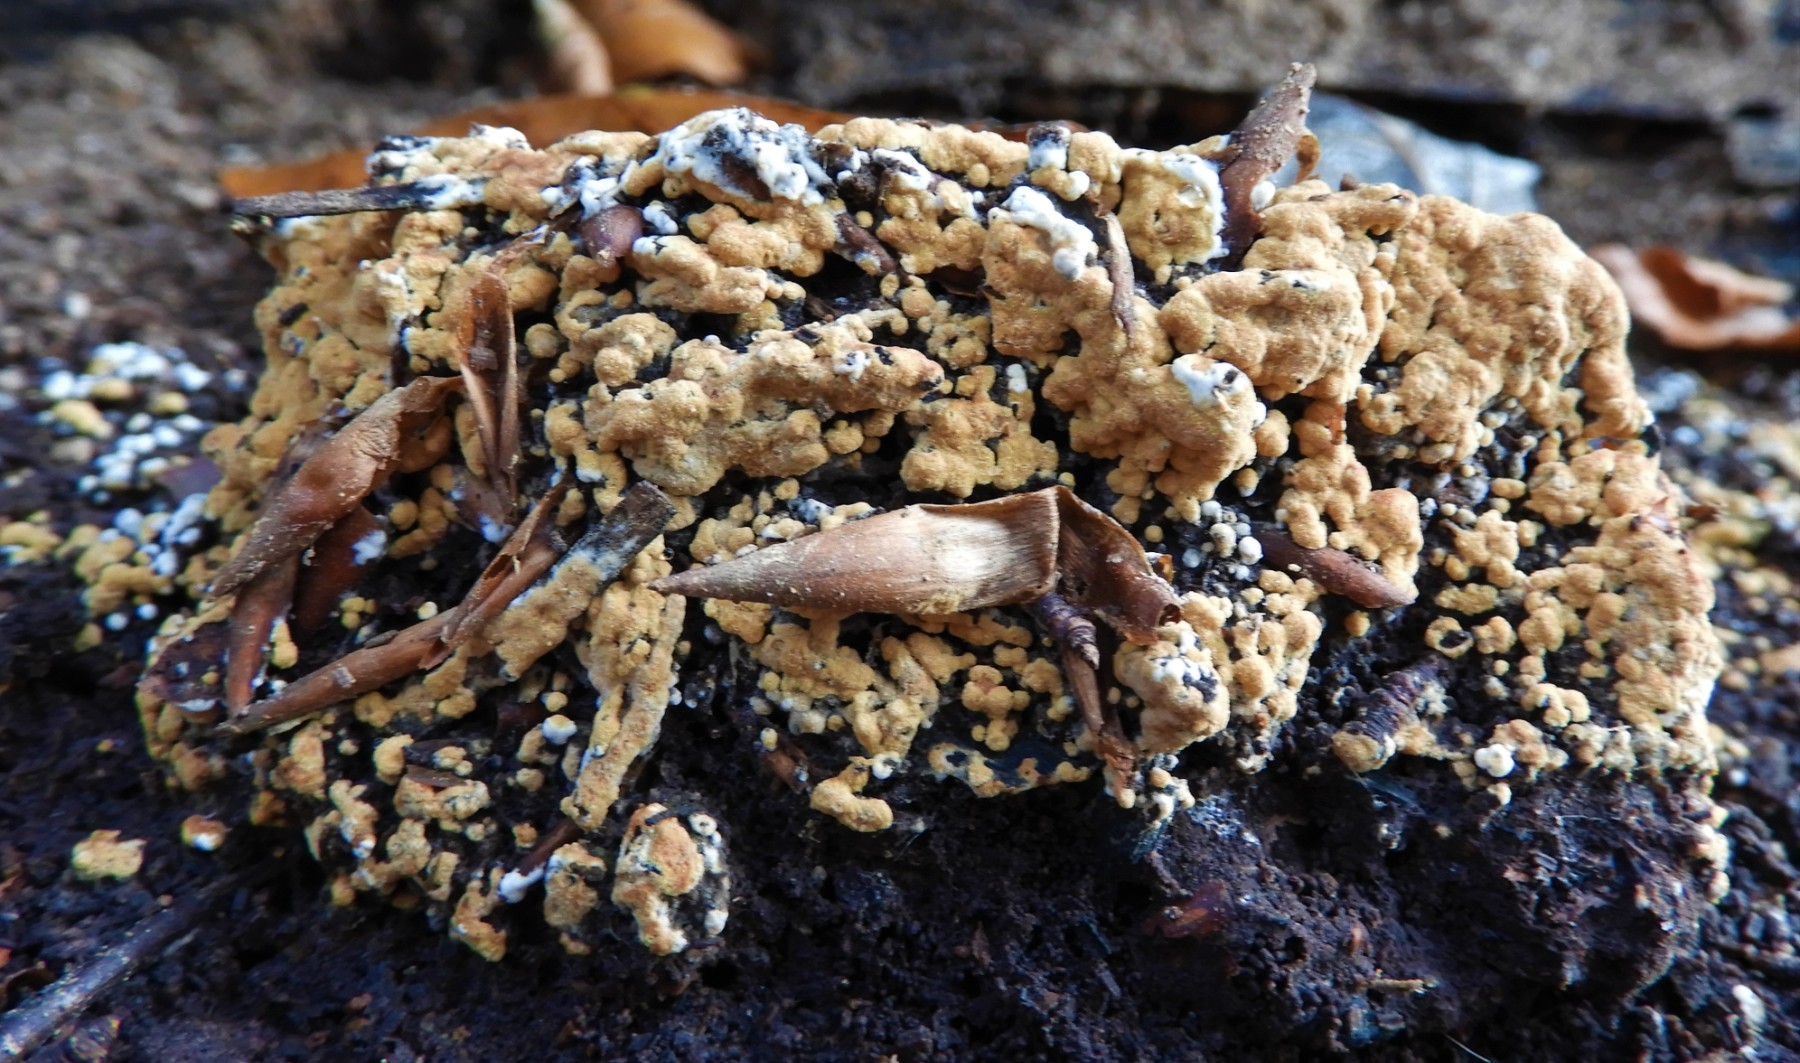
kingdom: Fungi
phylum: Basidiomycota
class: Agaricomycetes
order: Cantharellales
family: Botryobasidiaceae
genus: Botryobasidium
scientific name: Botryobasidium aureum
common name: gylden spindhinde
